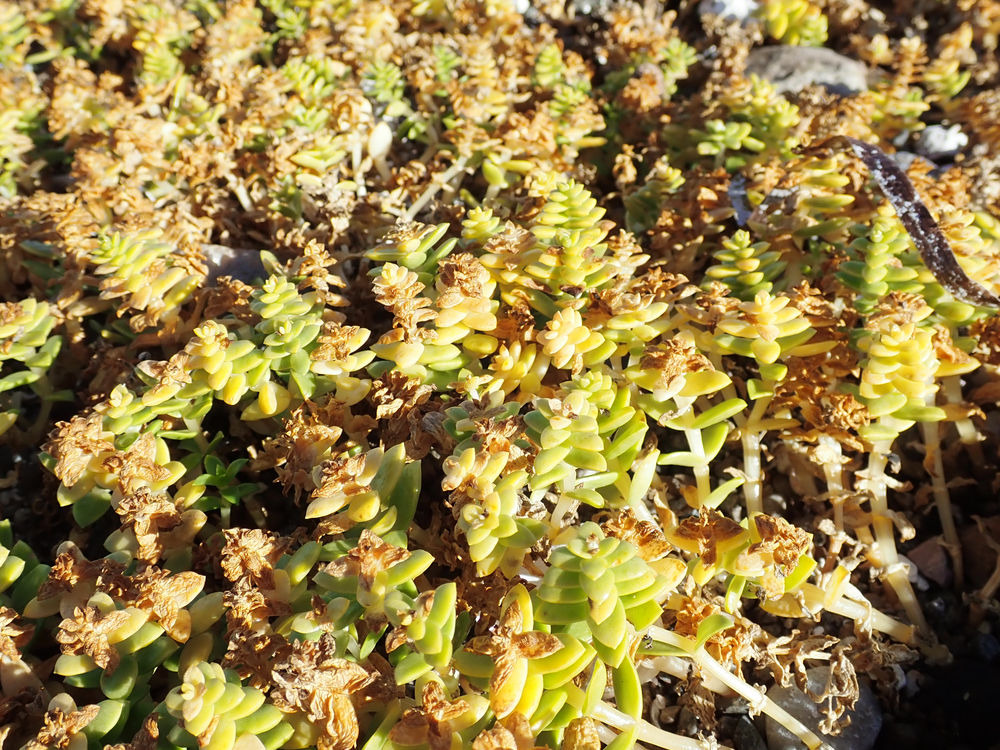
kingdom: Plantae
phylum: Tracheophyta
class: Magnoliopsida
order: Caryophyllales
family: Caryophyllaceae
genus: Honckenya
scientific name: Honckenya peploides
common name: Strandarve
